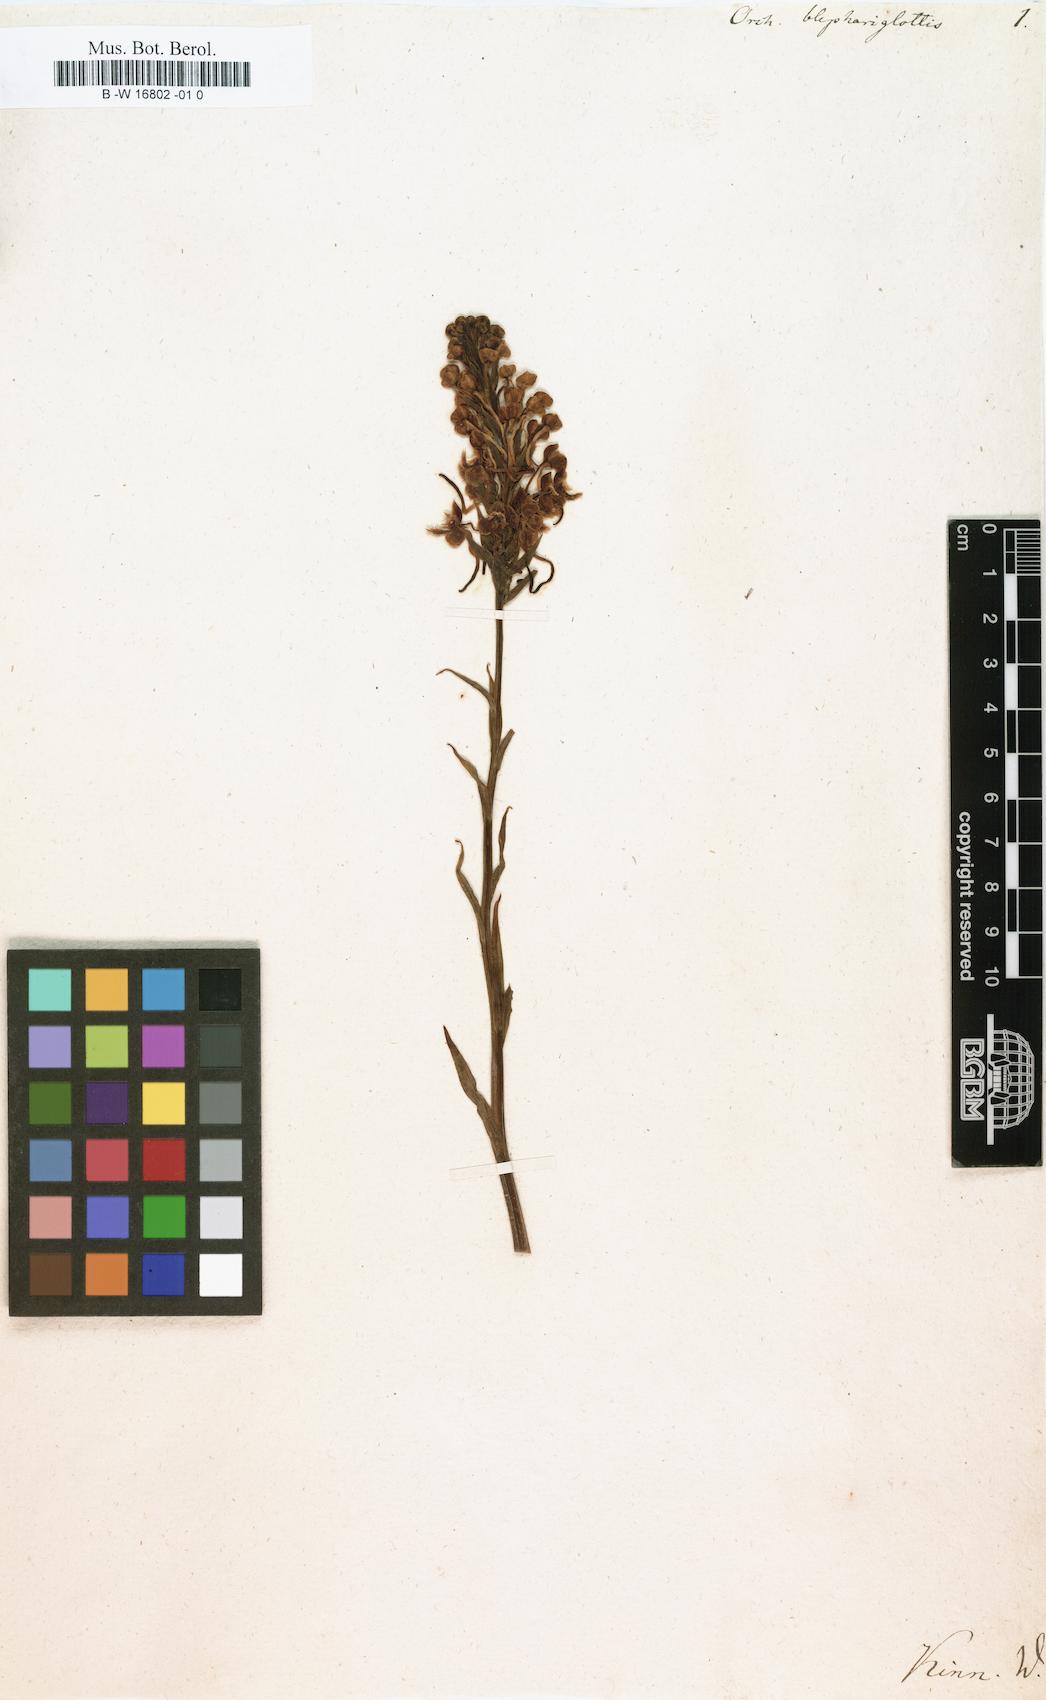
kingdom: Plantae
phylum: Tracheophyta
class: Liliopsida
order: Asparagales
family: Orchidaceae
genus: Platanthera
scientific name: Platanthera blephariglottis
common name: White fringed orchid
